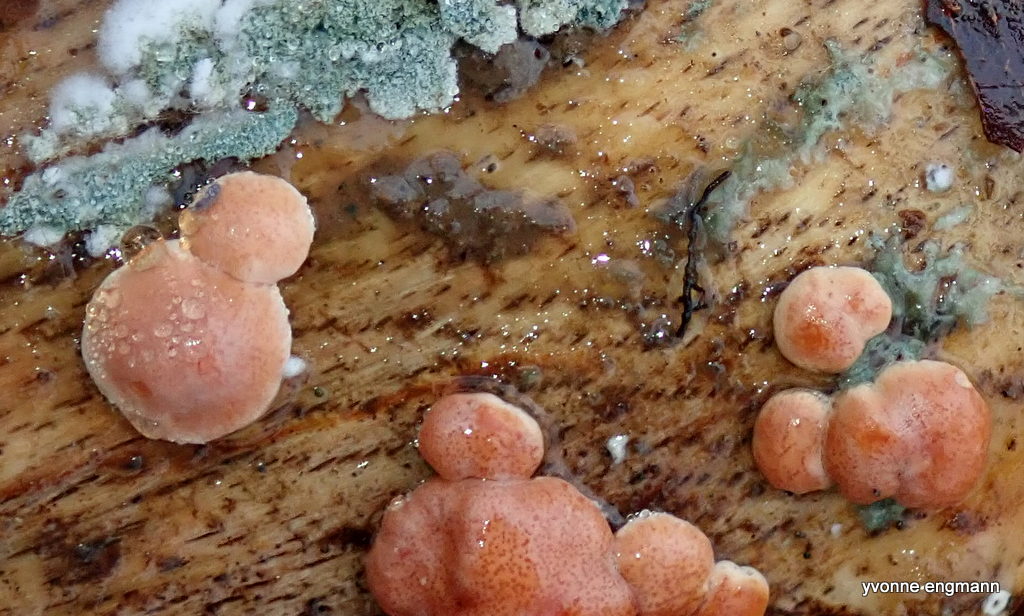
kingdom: Fungi
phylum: Ascomycota
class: Sordariomycetes
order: Hypocreales
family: Hypocreaceae
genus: Trichoderma
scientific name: Trichoderma europaeum
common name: rosabrun kødkerne
